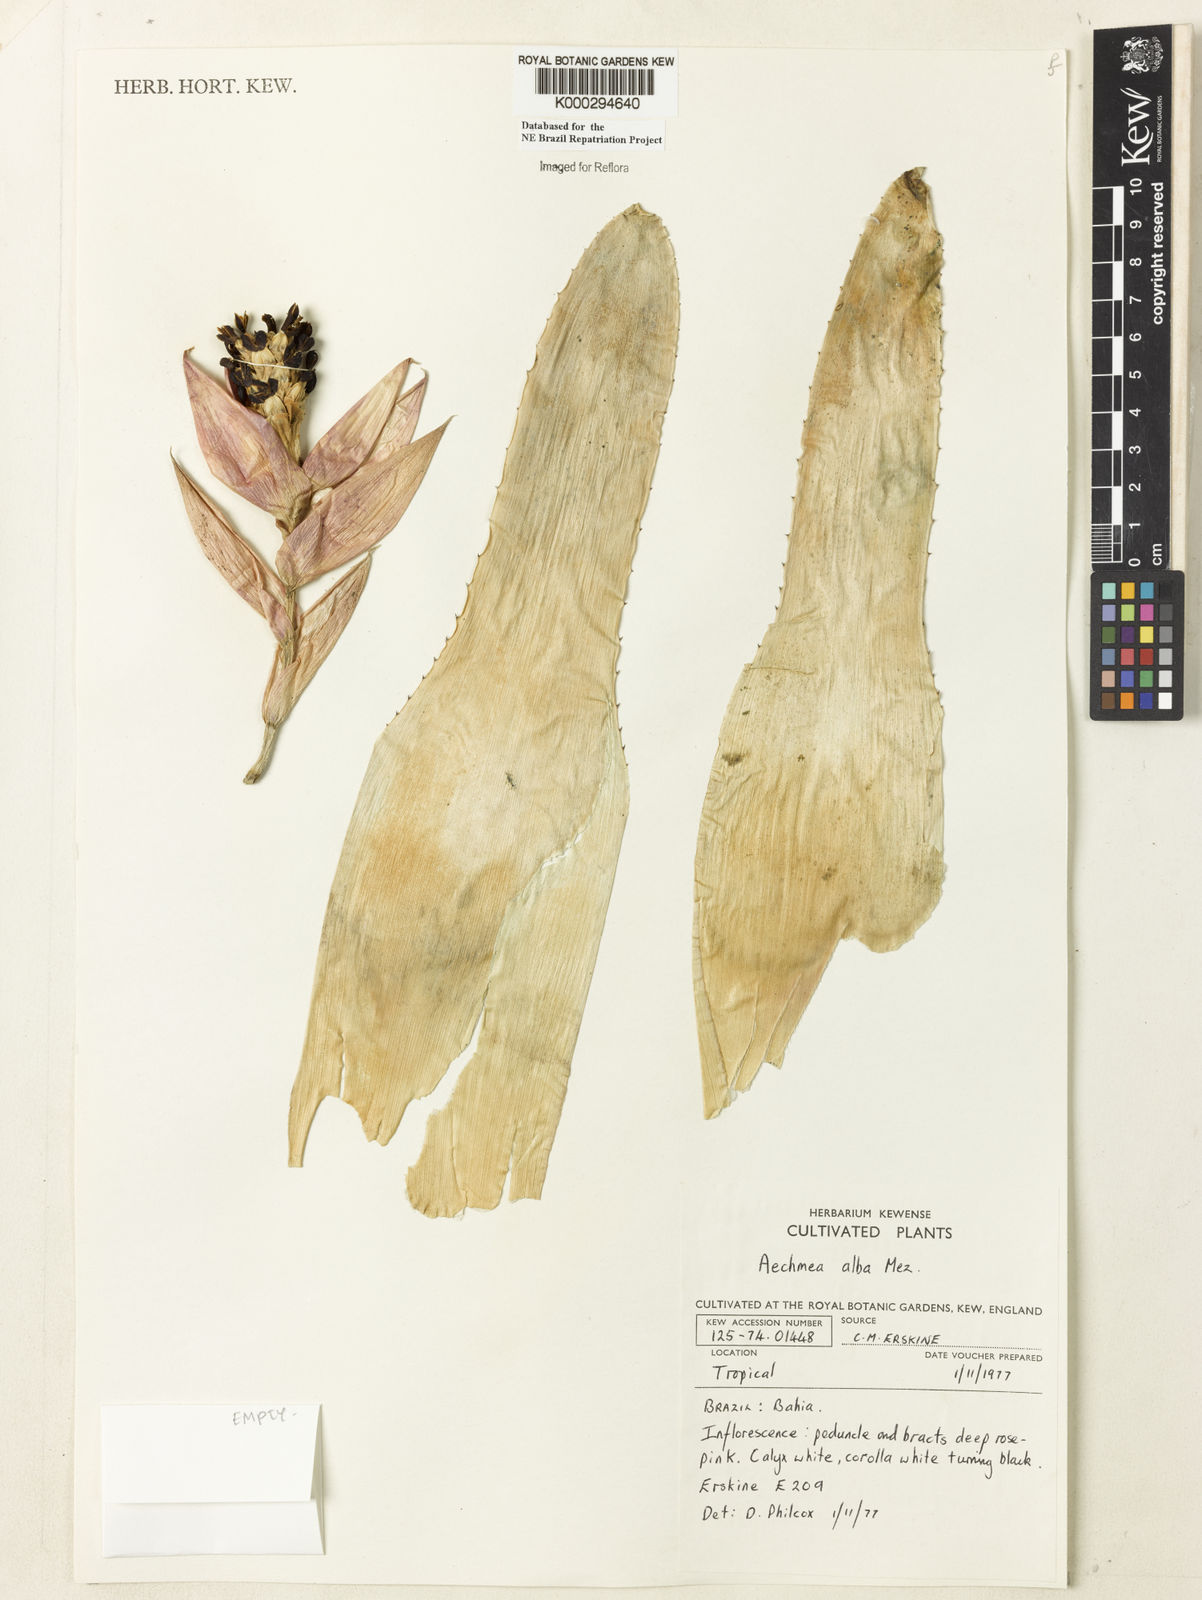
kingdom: Plantae
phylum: Tracheophyta
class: Liliopsida
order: Poales
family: Bromeliaceae
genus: Aechmea
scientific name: Aechmea alba
